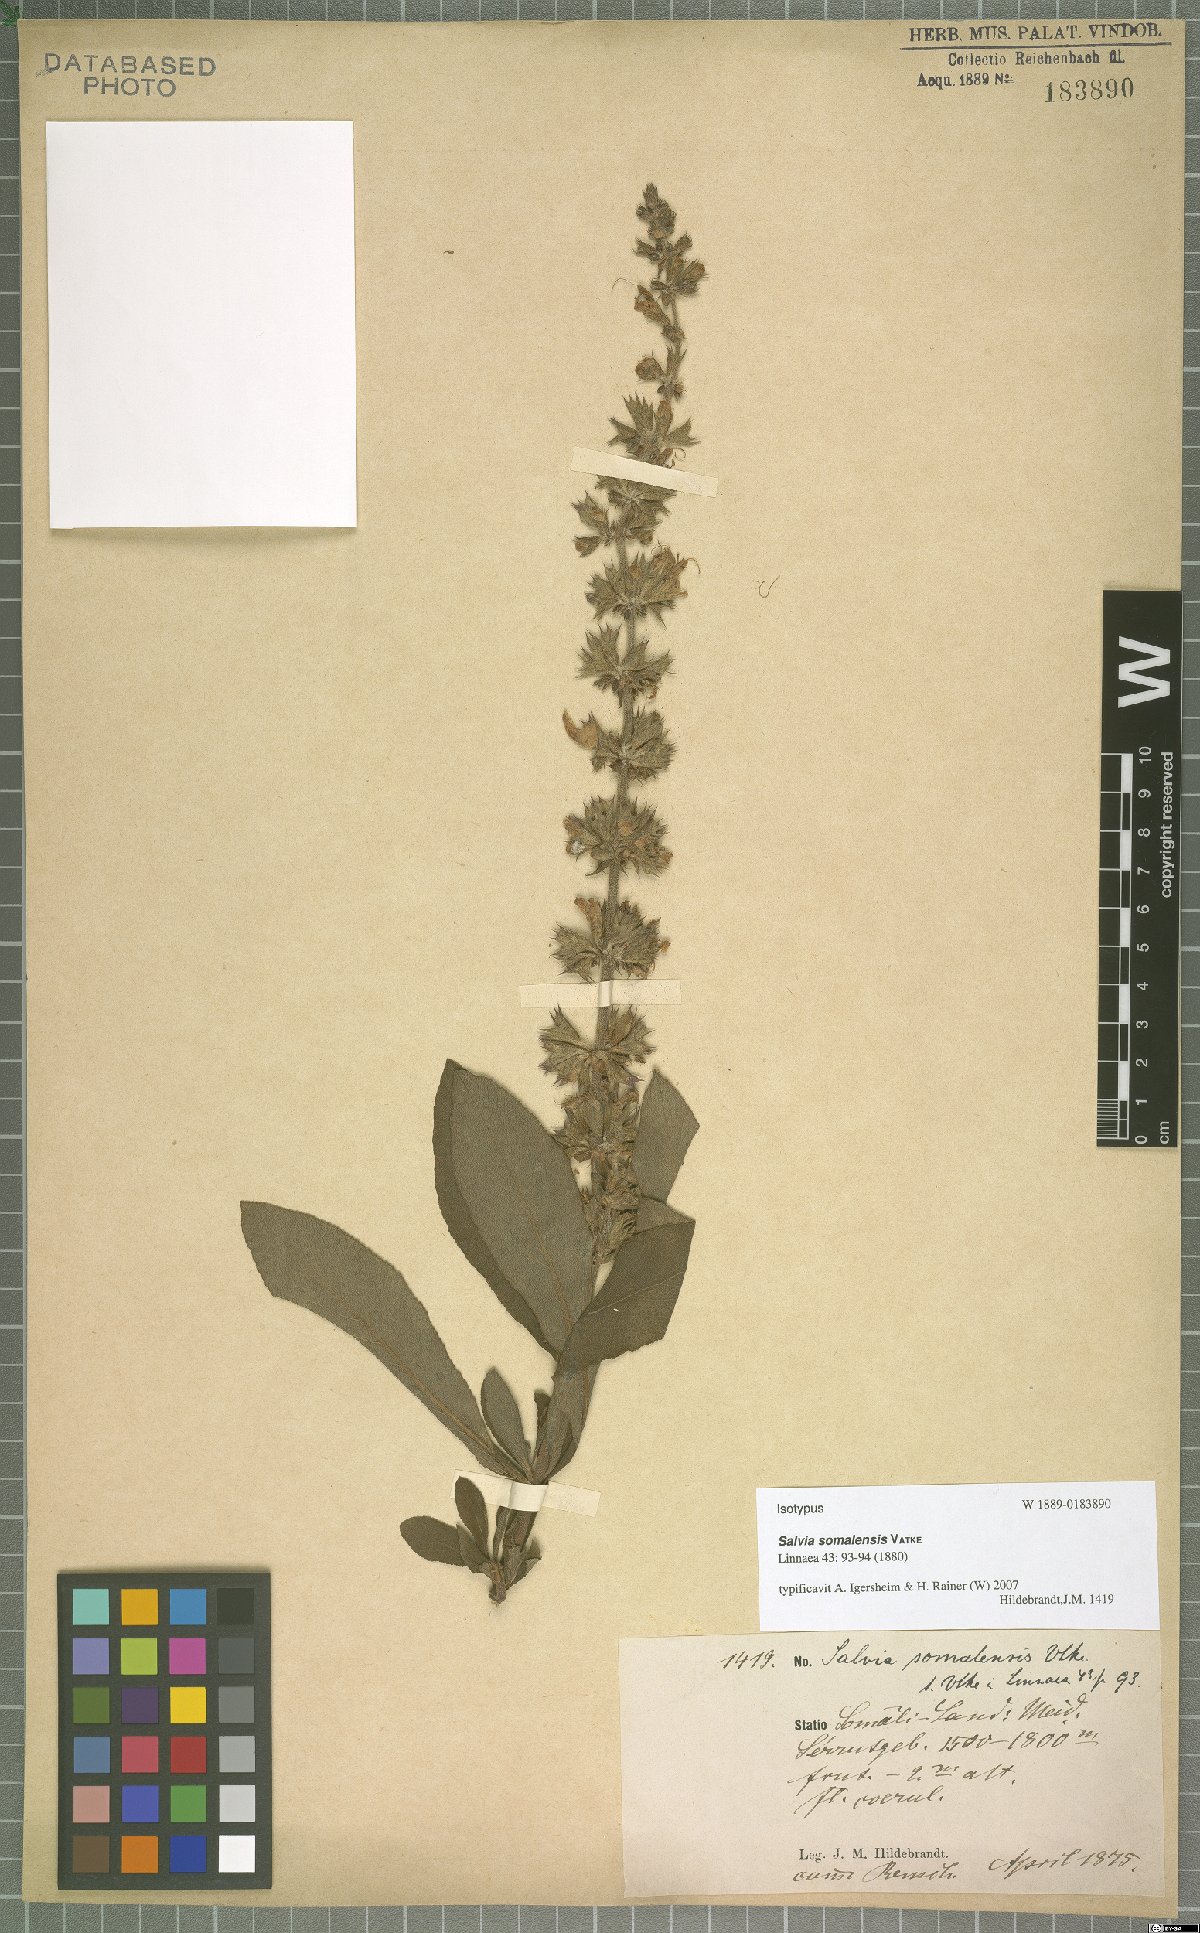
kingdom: Plantae
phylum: Tracheophyta
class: Magnoliopsida
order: Lamiales
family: Lamiaceae
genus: Salvia
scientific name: Salvia somalensis
